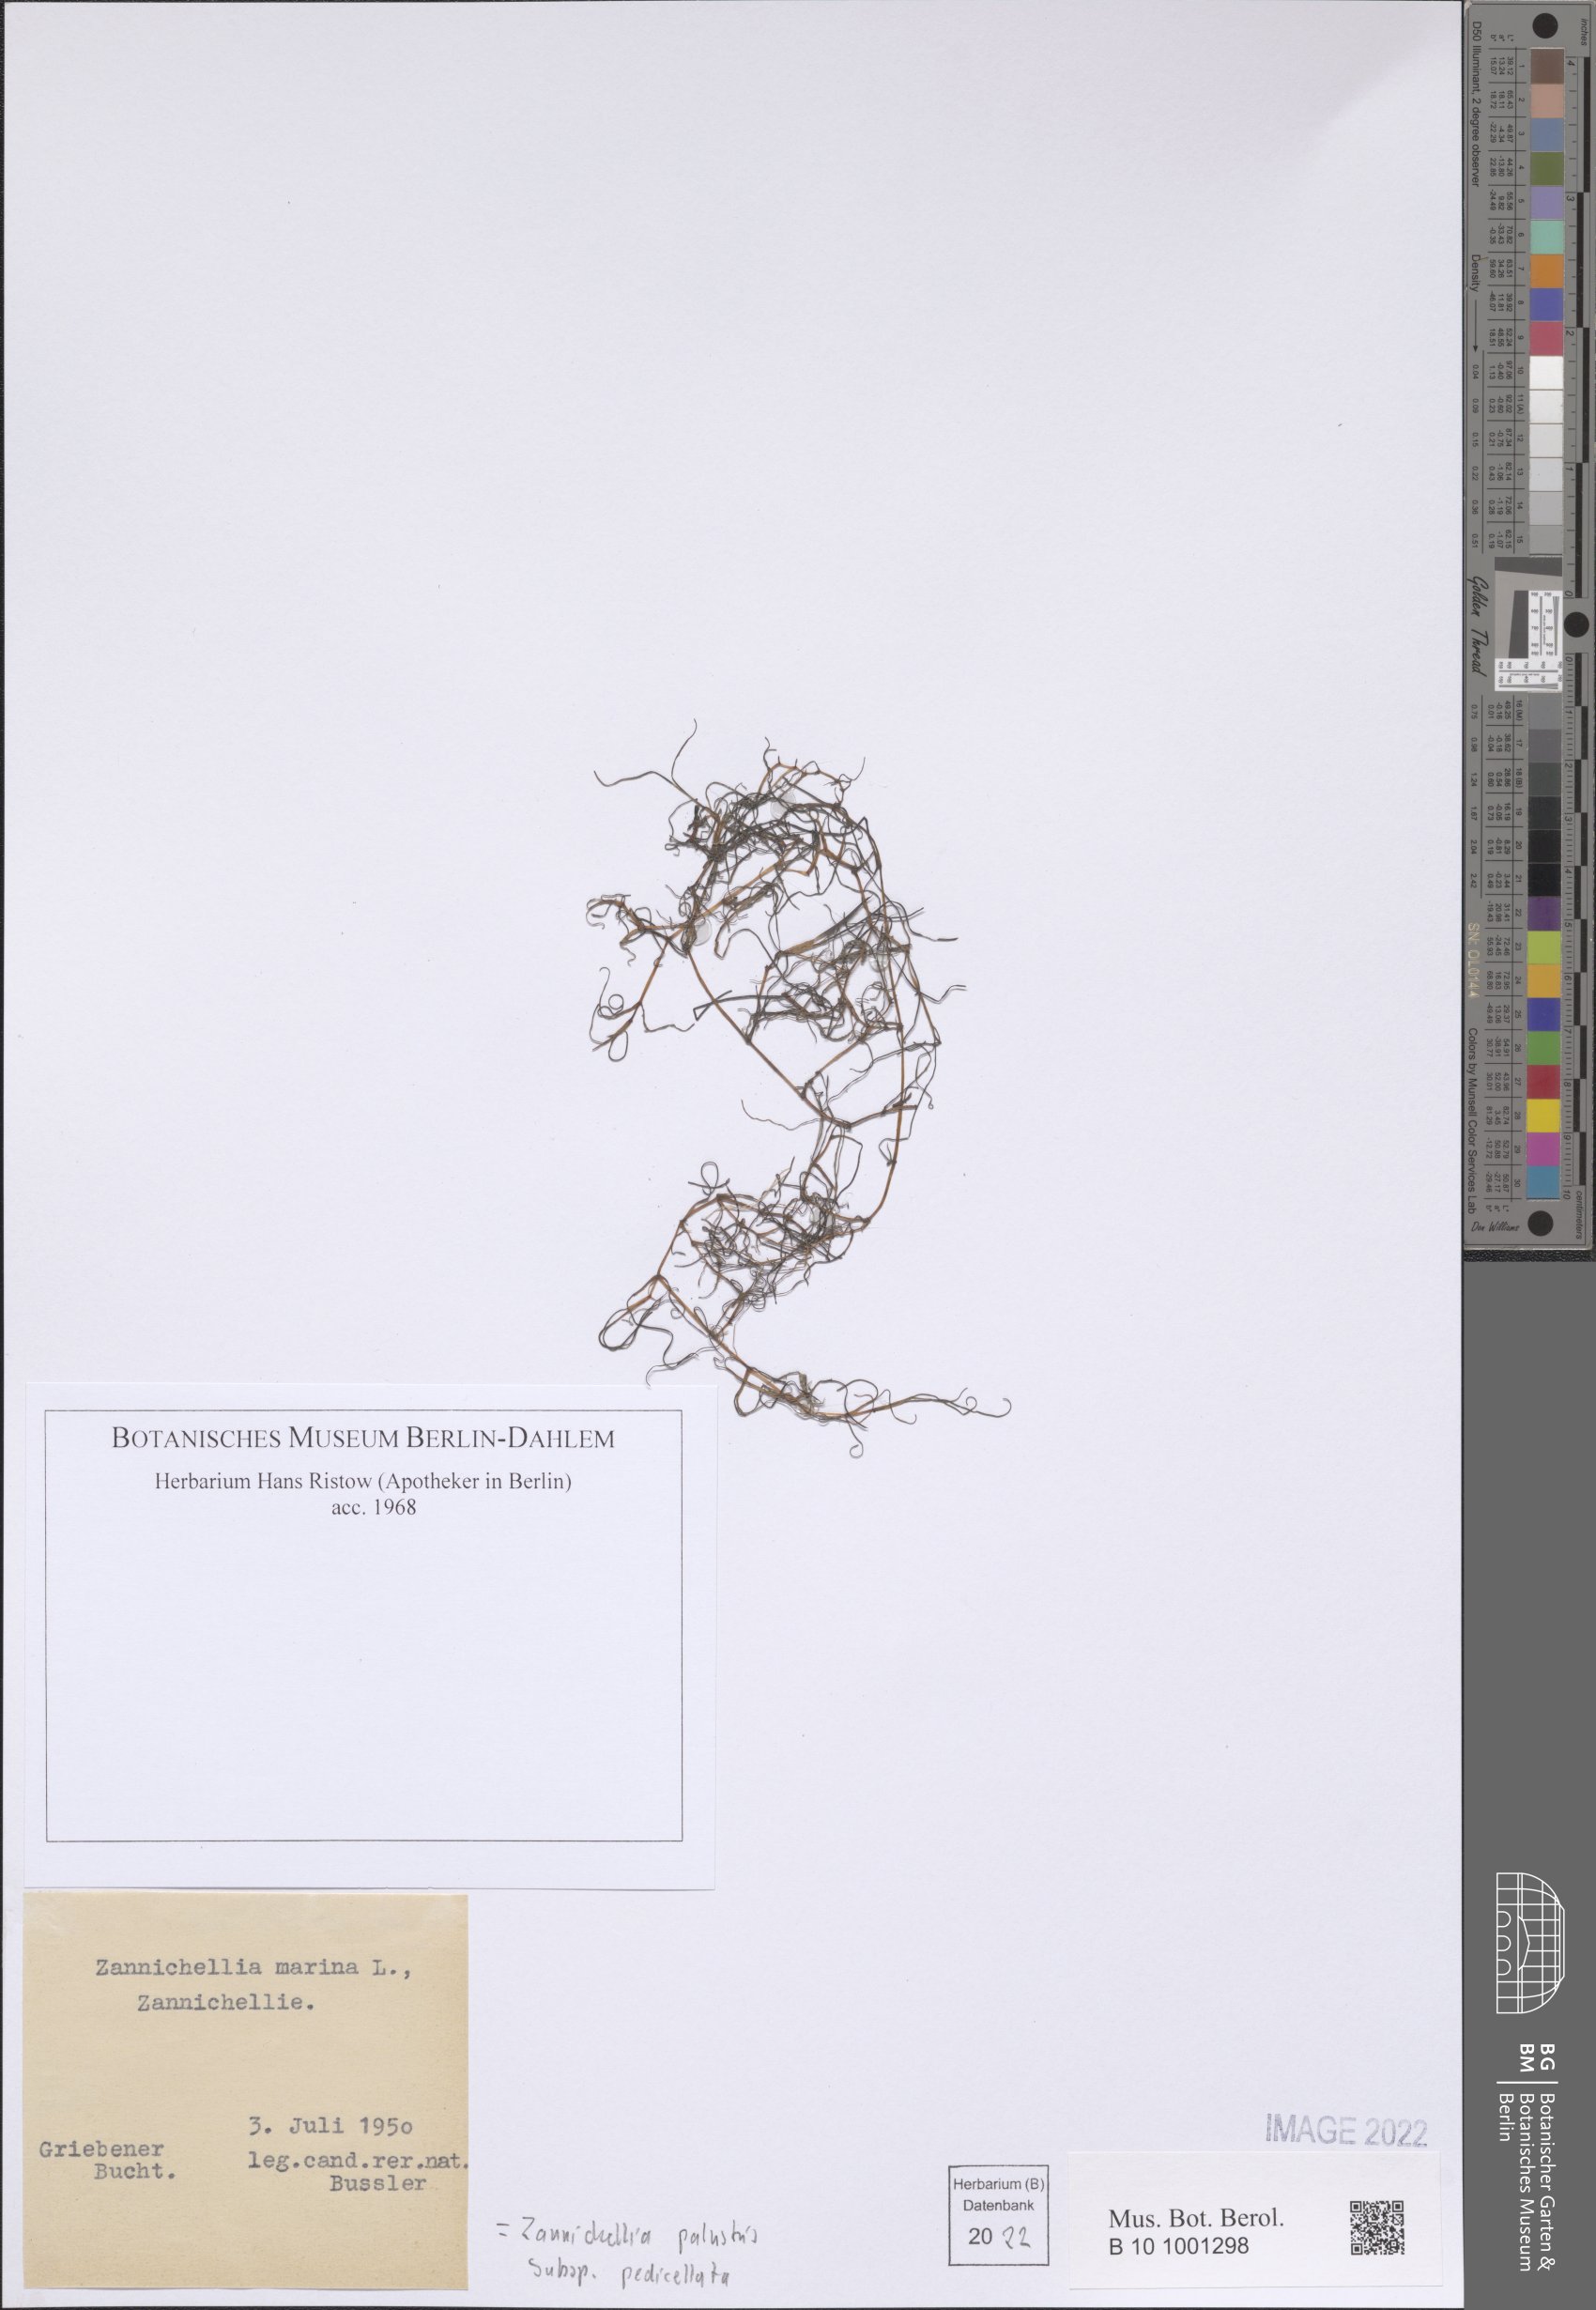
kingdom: Plantae
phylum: Tracheophyta
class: Liliopsida
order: Alismatales
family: Potamogetonaceae
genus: Zannichellia
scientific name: Zannichellia palustris
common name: Horned pondweed
